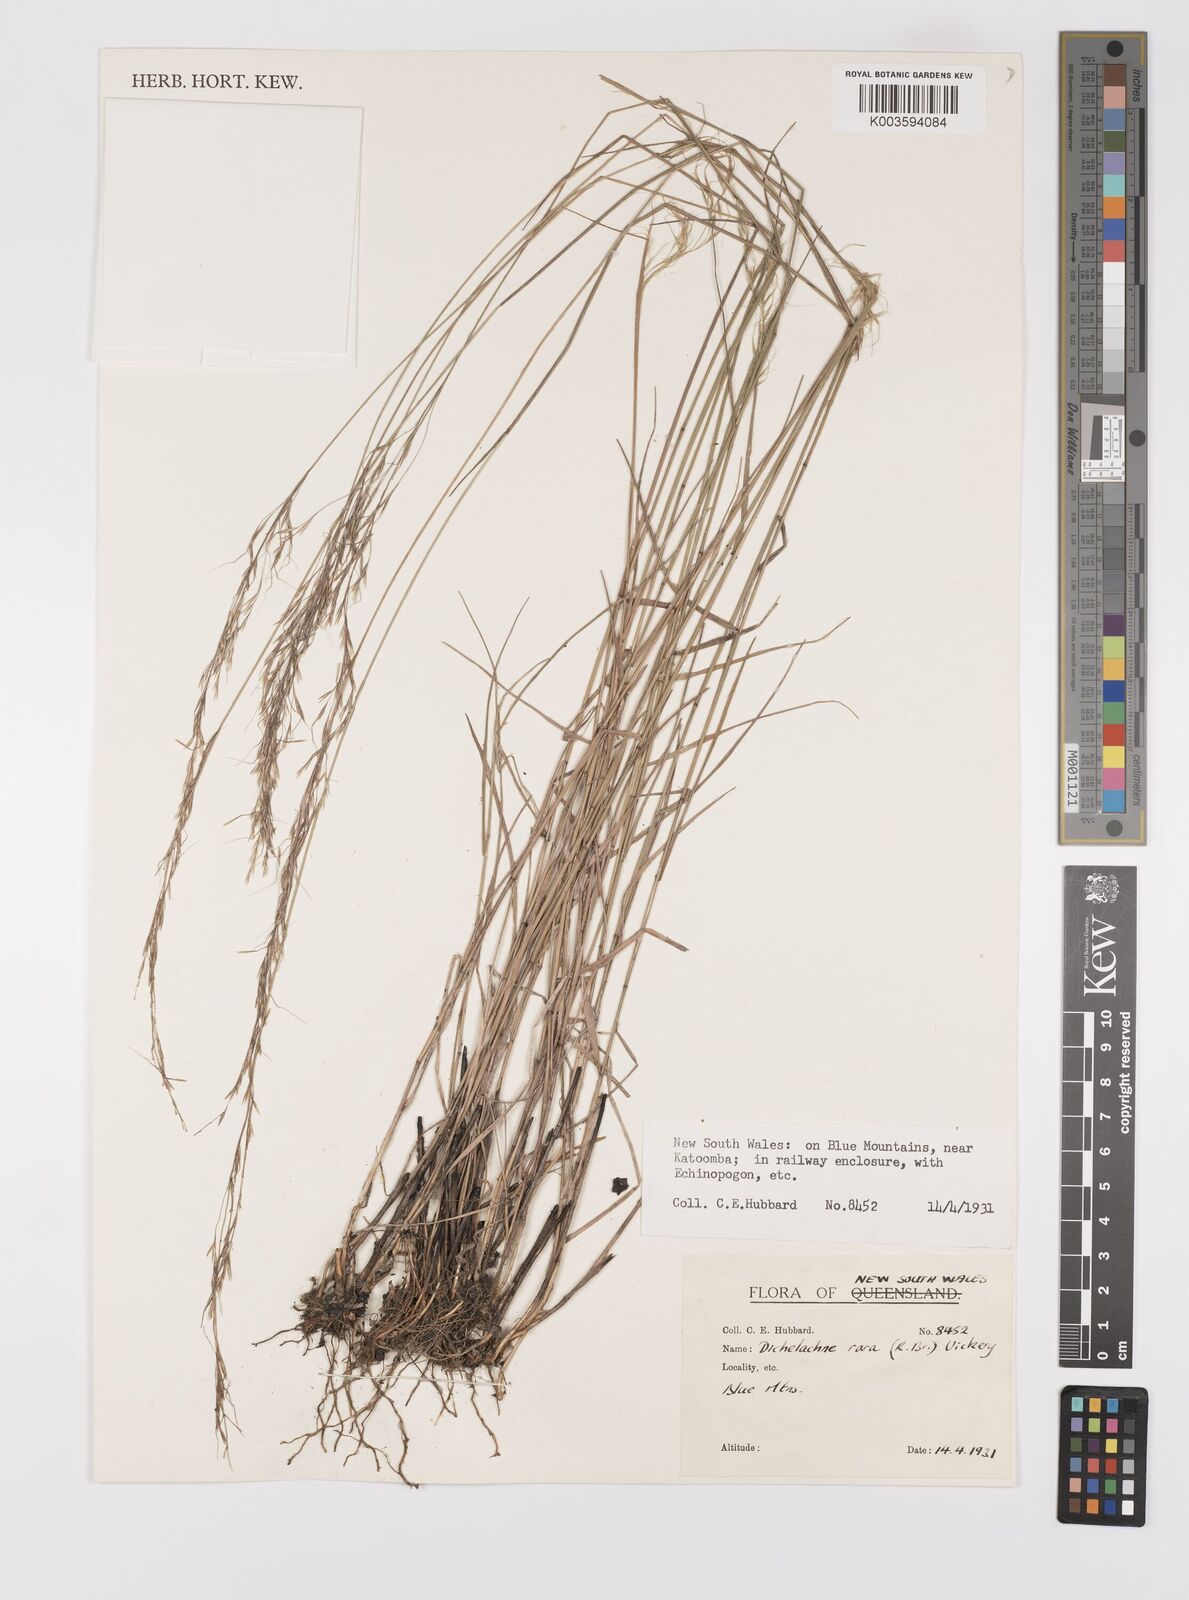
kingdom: Plantae
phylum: Tracheophyta
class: Liliopsida
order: Poales
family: Poaceae
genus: Dichelachne
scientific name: Dichelachne rara
